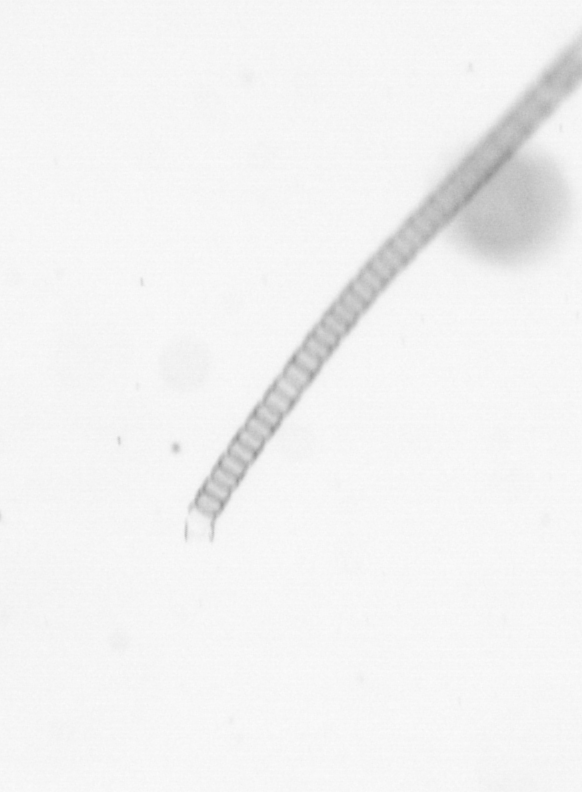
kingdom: Chromista
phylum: Ochrophyta
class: Bacillariophyceae
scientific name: Bacillariophyceae
